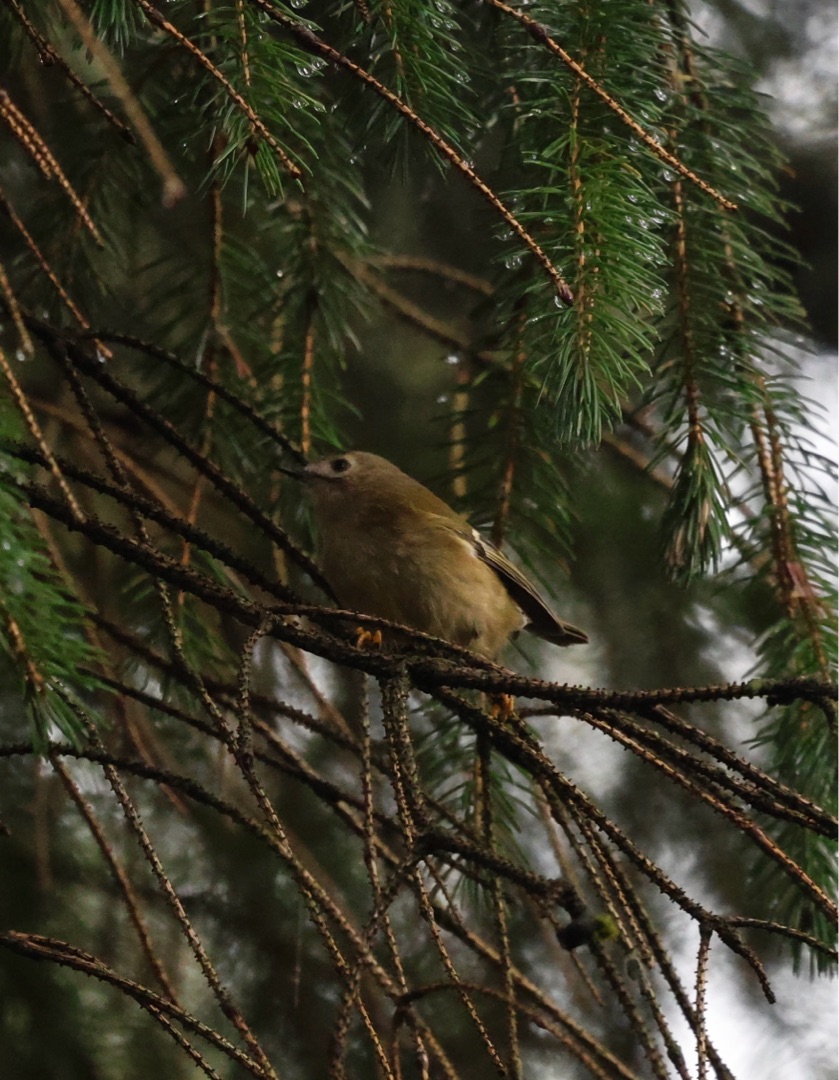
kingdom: Animalia
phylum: Chordata
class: Aves
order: Passeriformes
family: Regulidae
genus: Regulus
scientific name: Regulus regulus
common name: Fuglekonge
